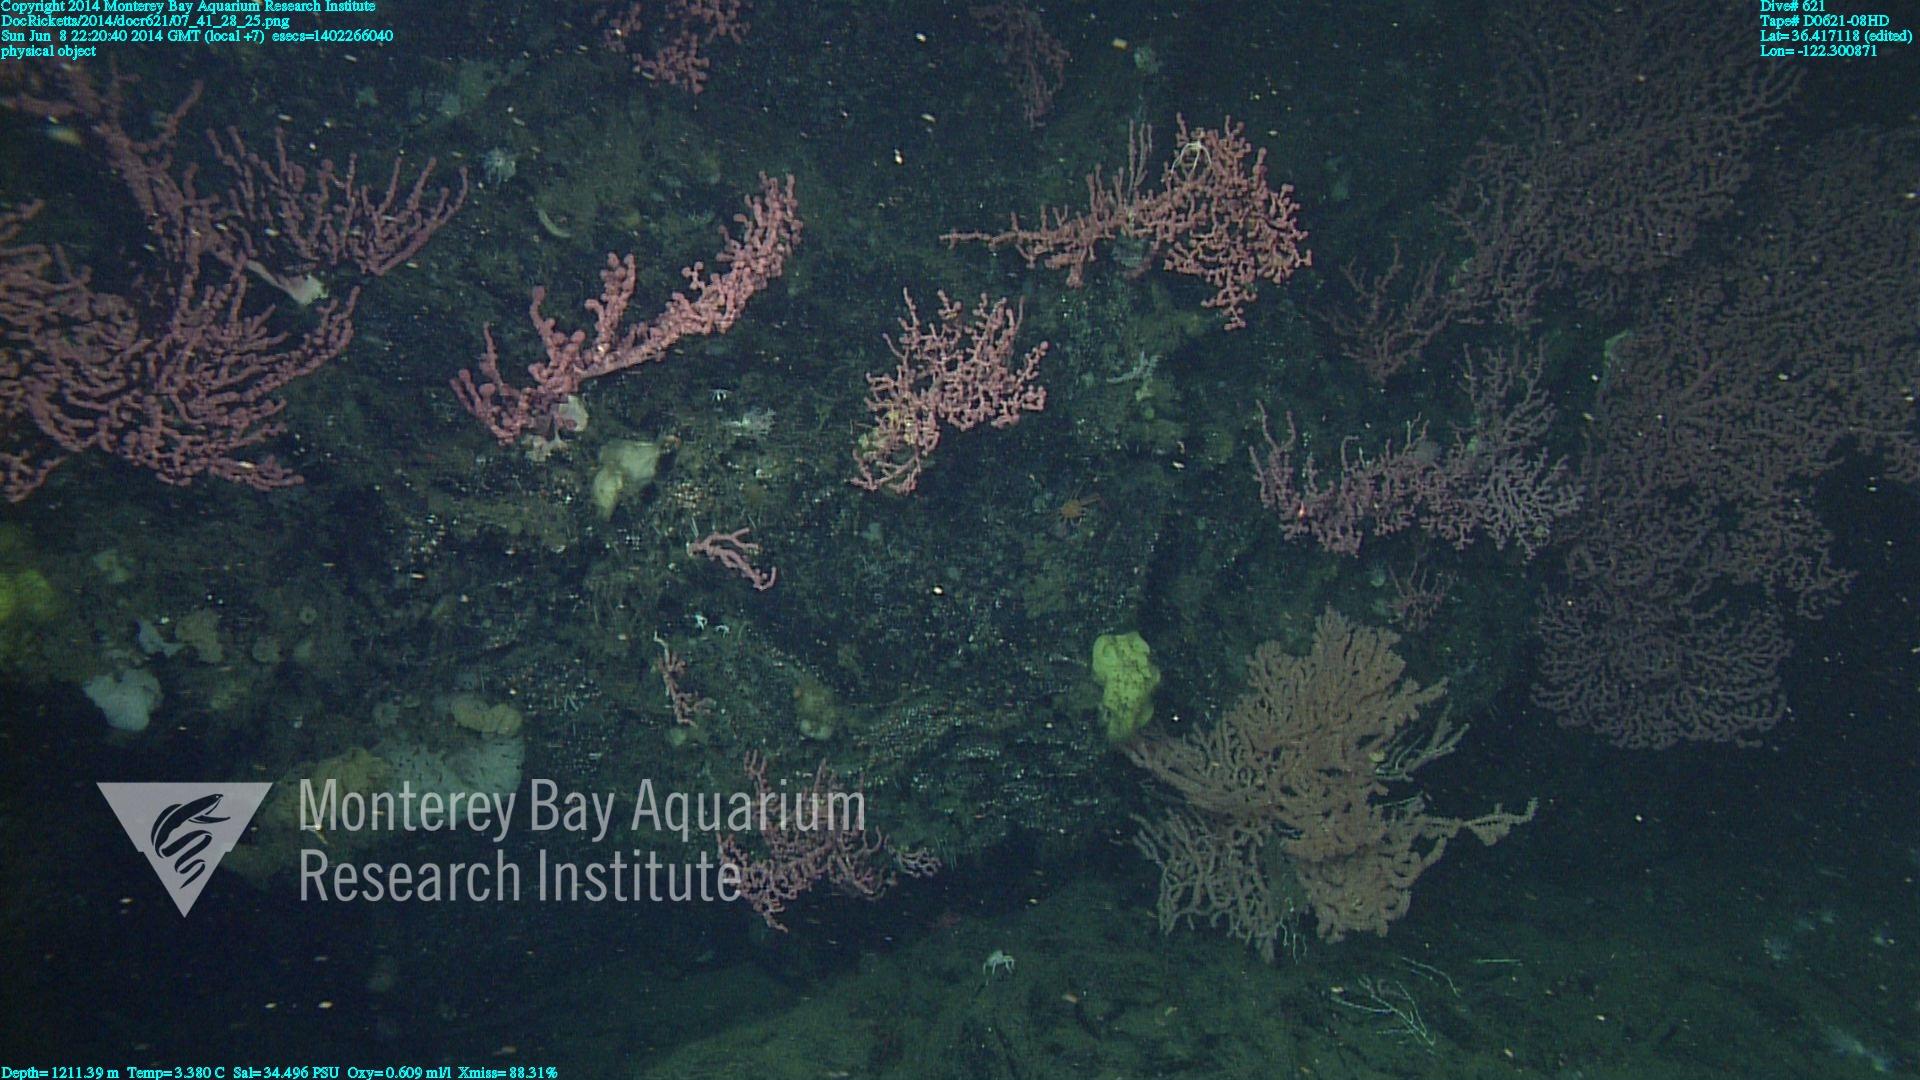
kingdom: Animalia
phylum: Cnidaria
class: Anthozoa
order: Scleralcyonacea
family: Coralliidae
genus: Paragorgia
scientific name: Paragorgia arborea
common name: Bubble gum coral
